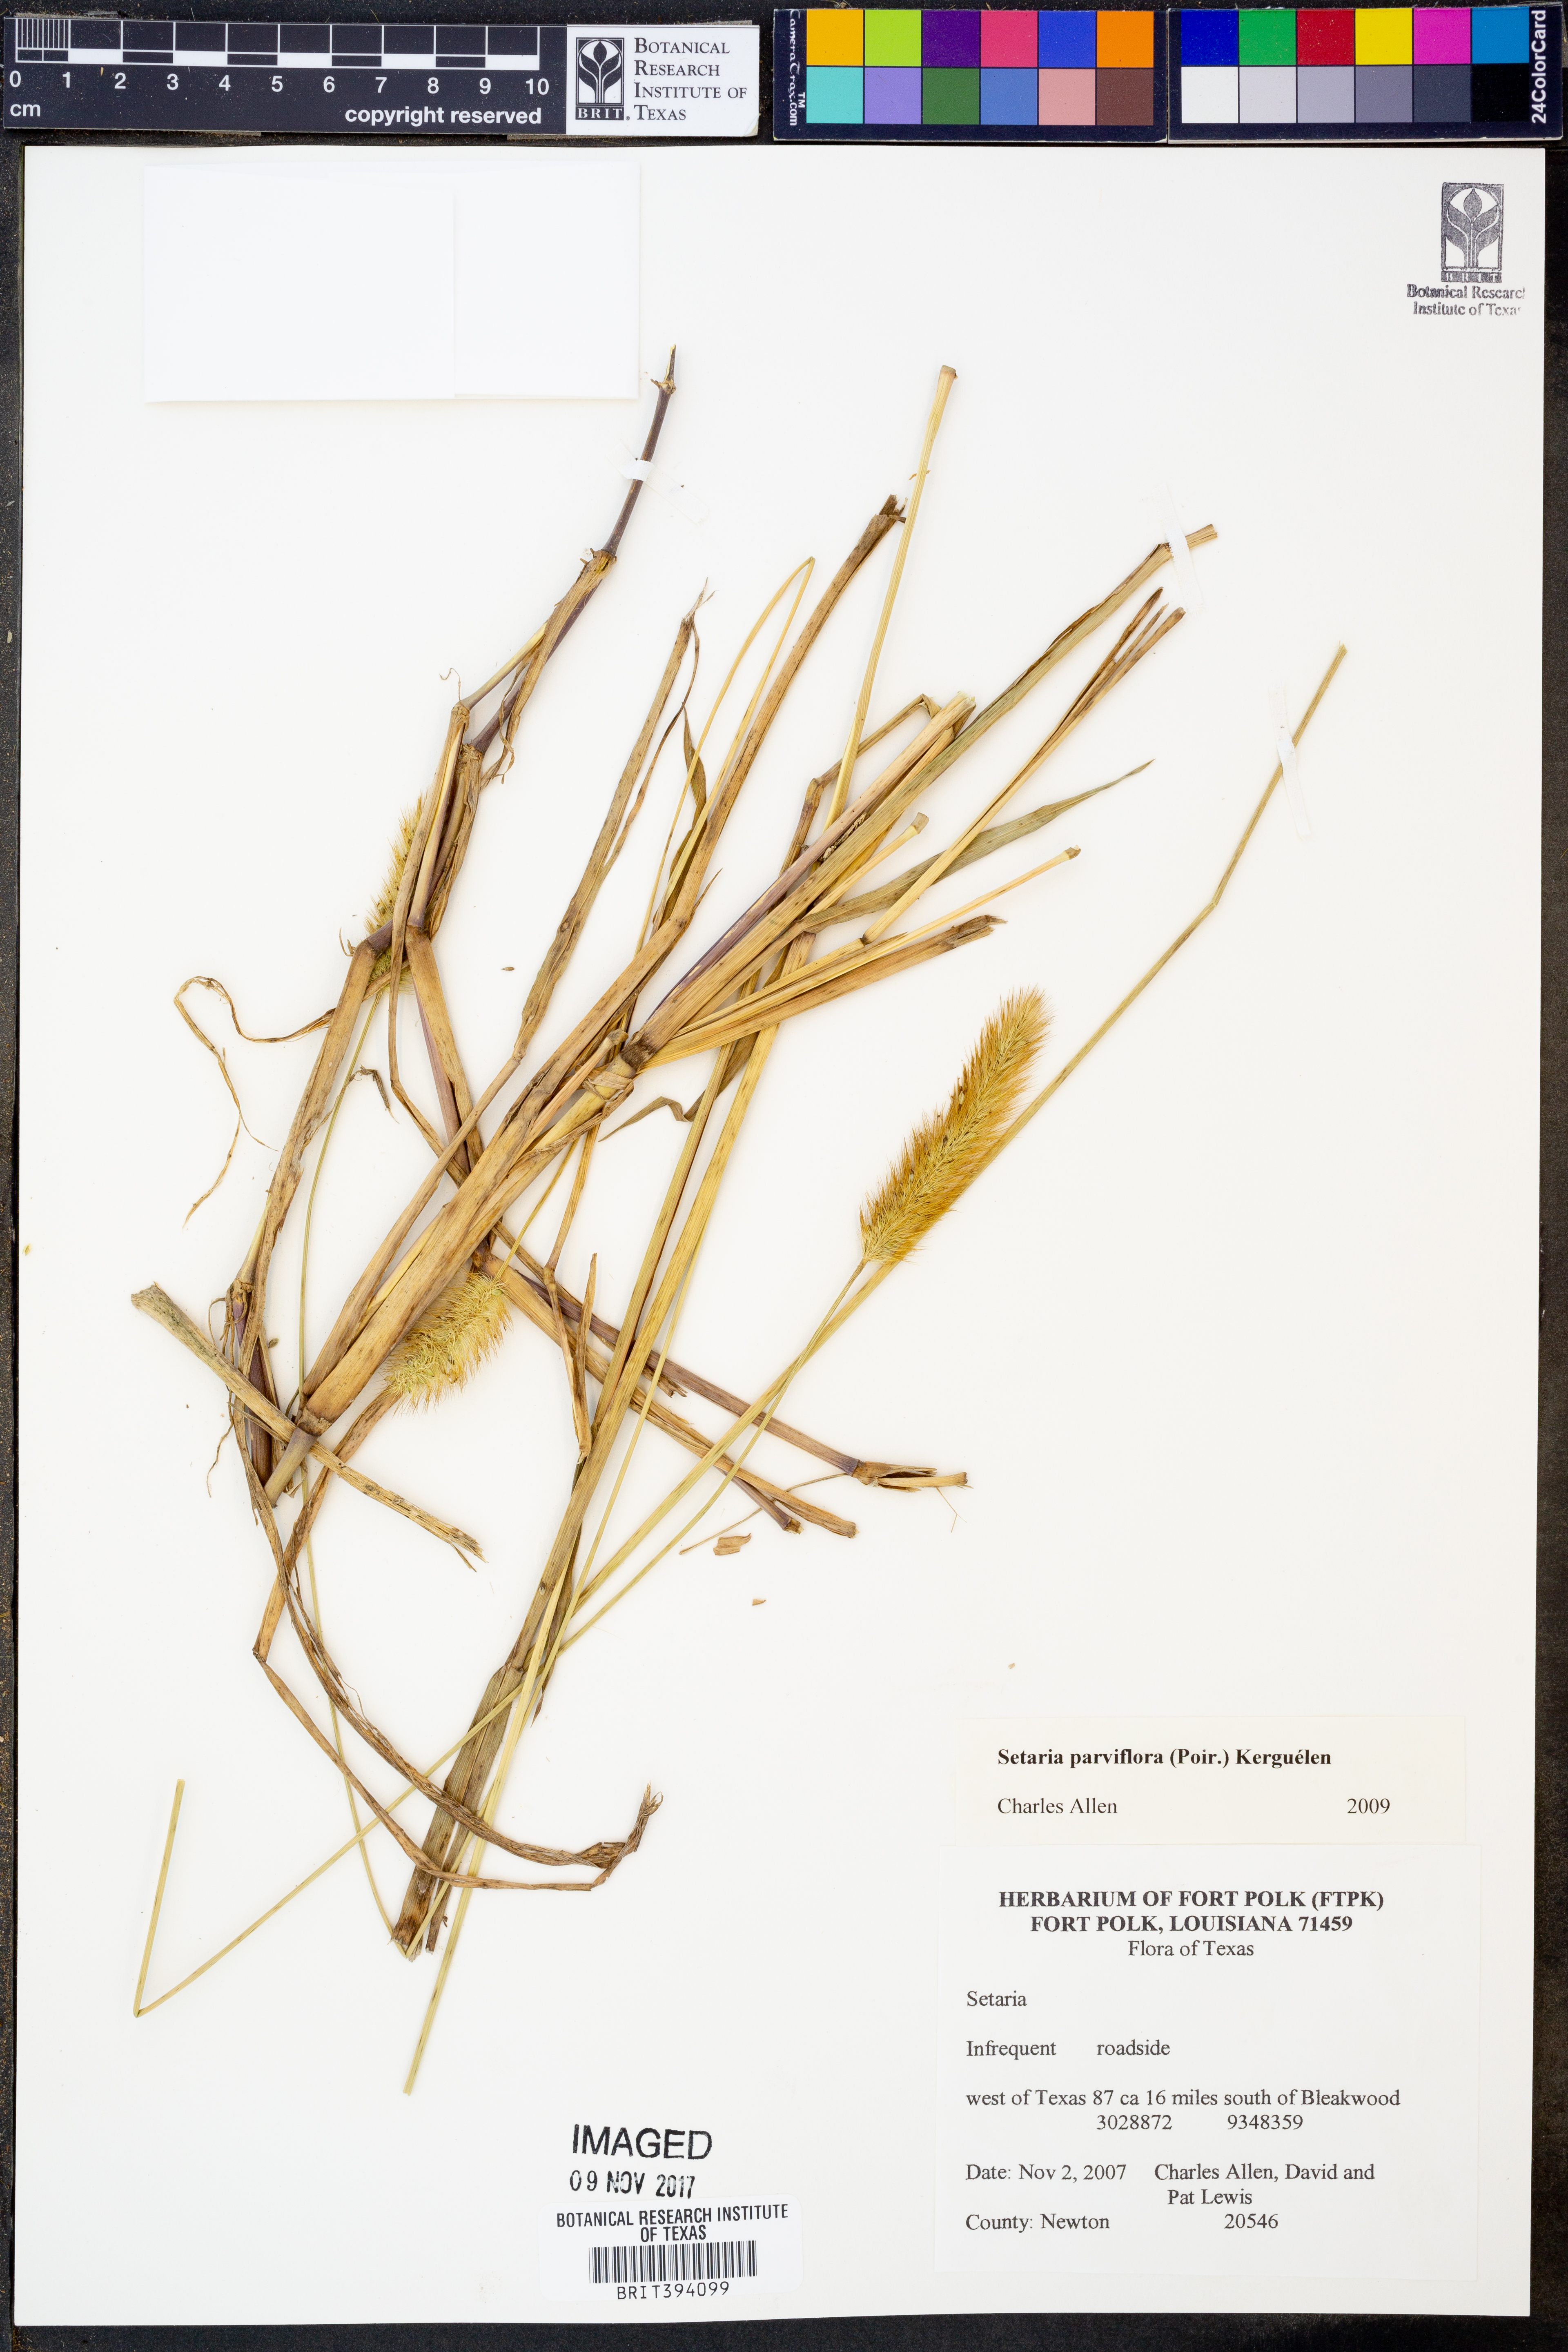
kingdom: Plantae
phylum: Tracheophyta
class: Liliopsida
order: Poales
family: Poaceae
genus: Setaria
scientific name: Setaria parviflora
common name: Knotroot bristle-grass
